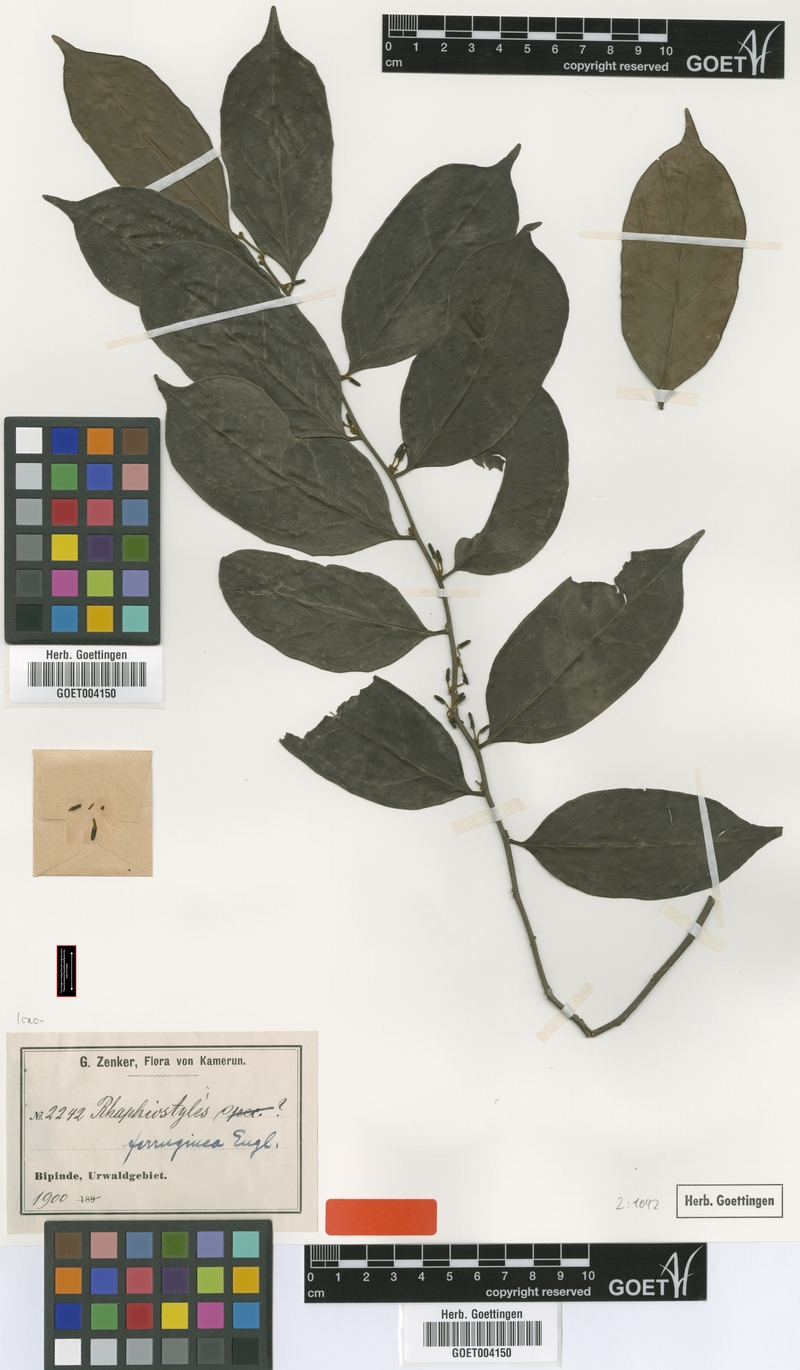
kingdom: Plantae
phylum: Tracheophyta
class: Magnoliopsida
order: Metteniusales
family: Metteniusaceae
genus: Rhaphiostylis
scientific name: Rhaphiostylis ferruginea
